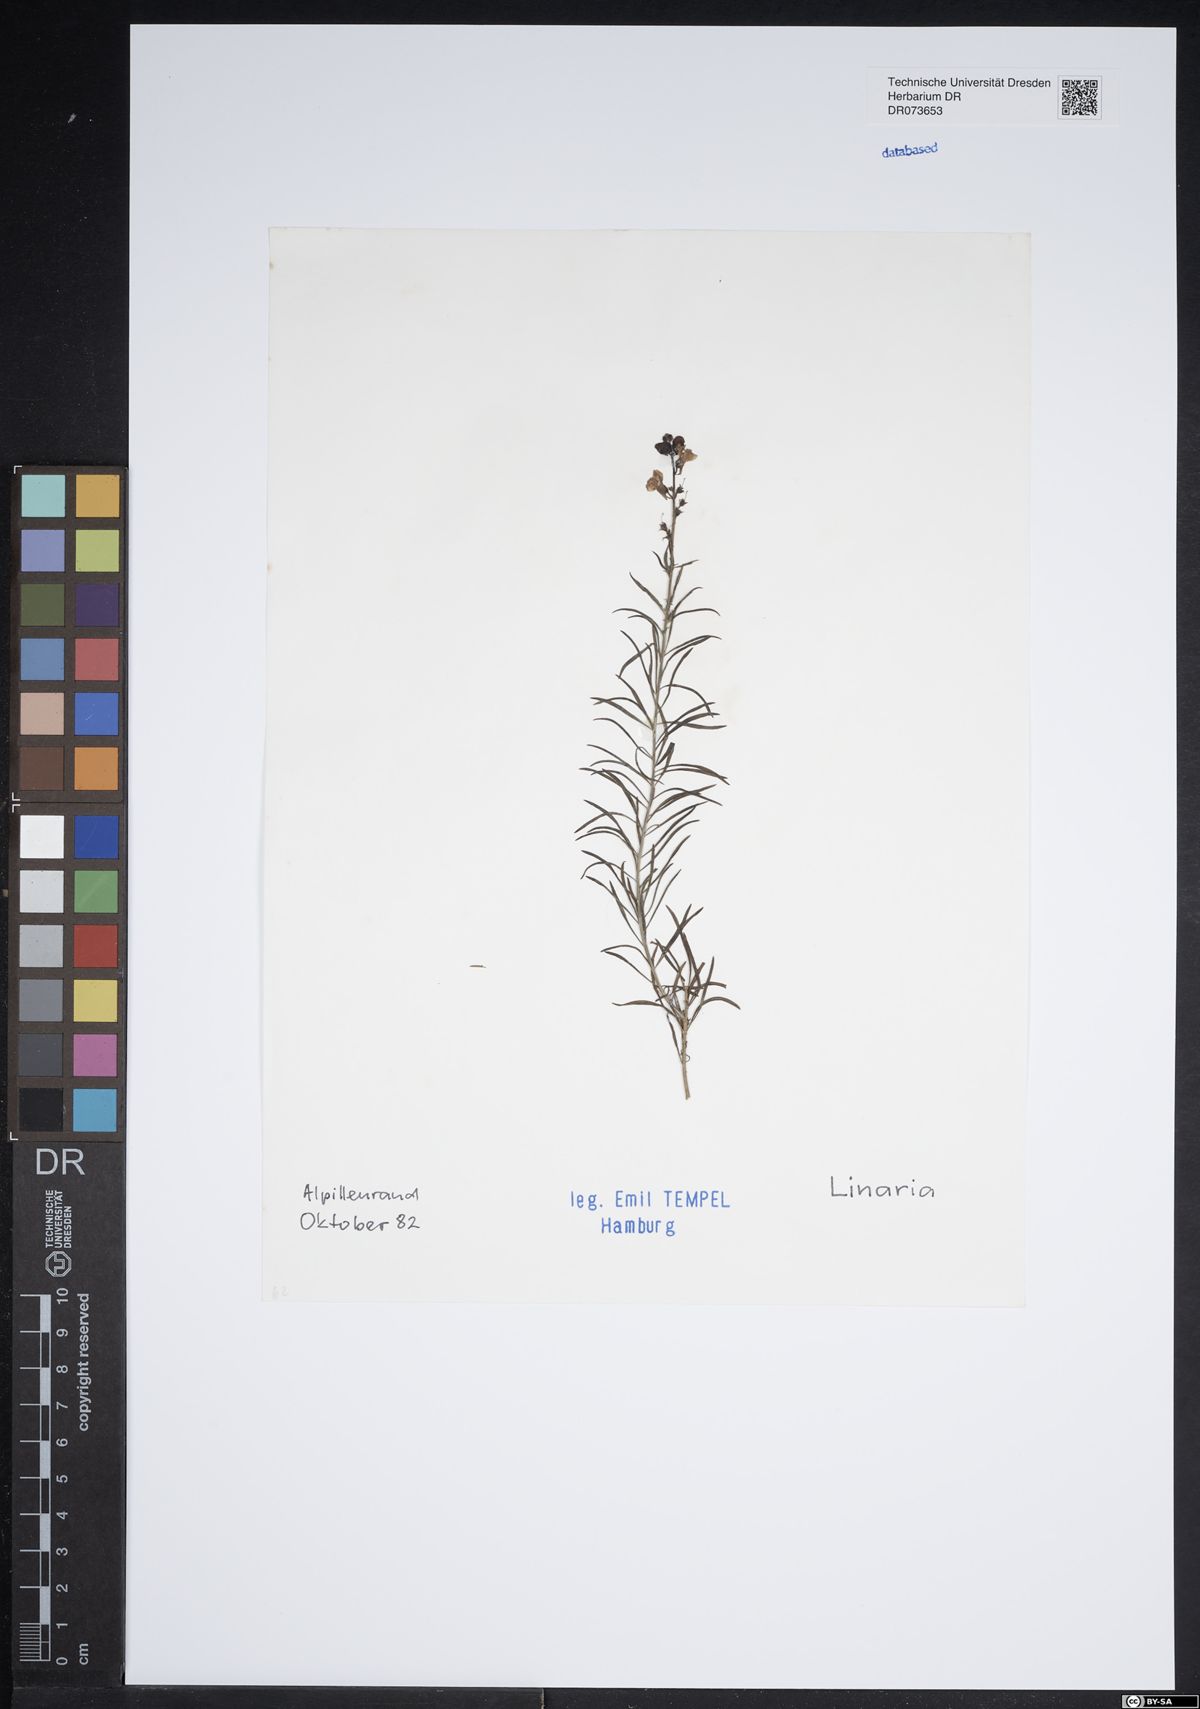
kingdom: Plantae
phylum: Tracheophyta
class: Magnoliopsida
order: Lamiales
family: Plantaginaceae
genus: Linaria
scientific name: Linaria
